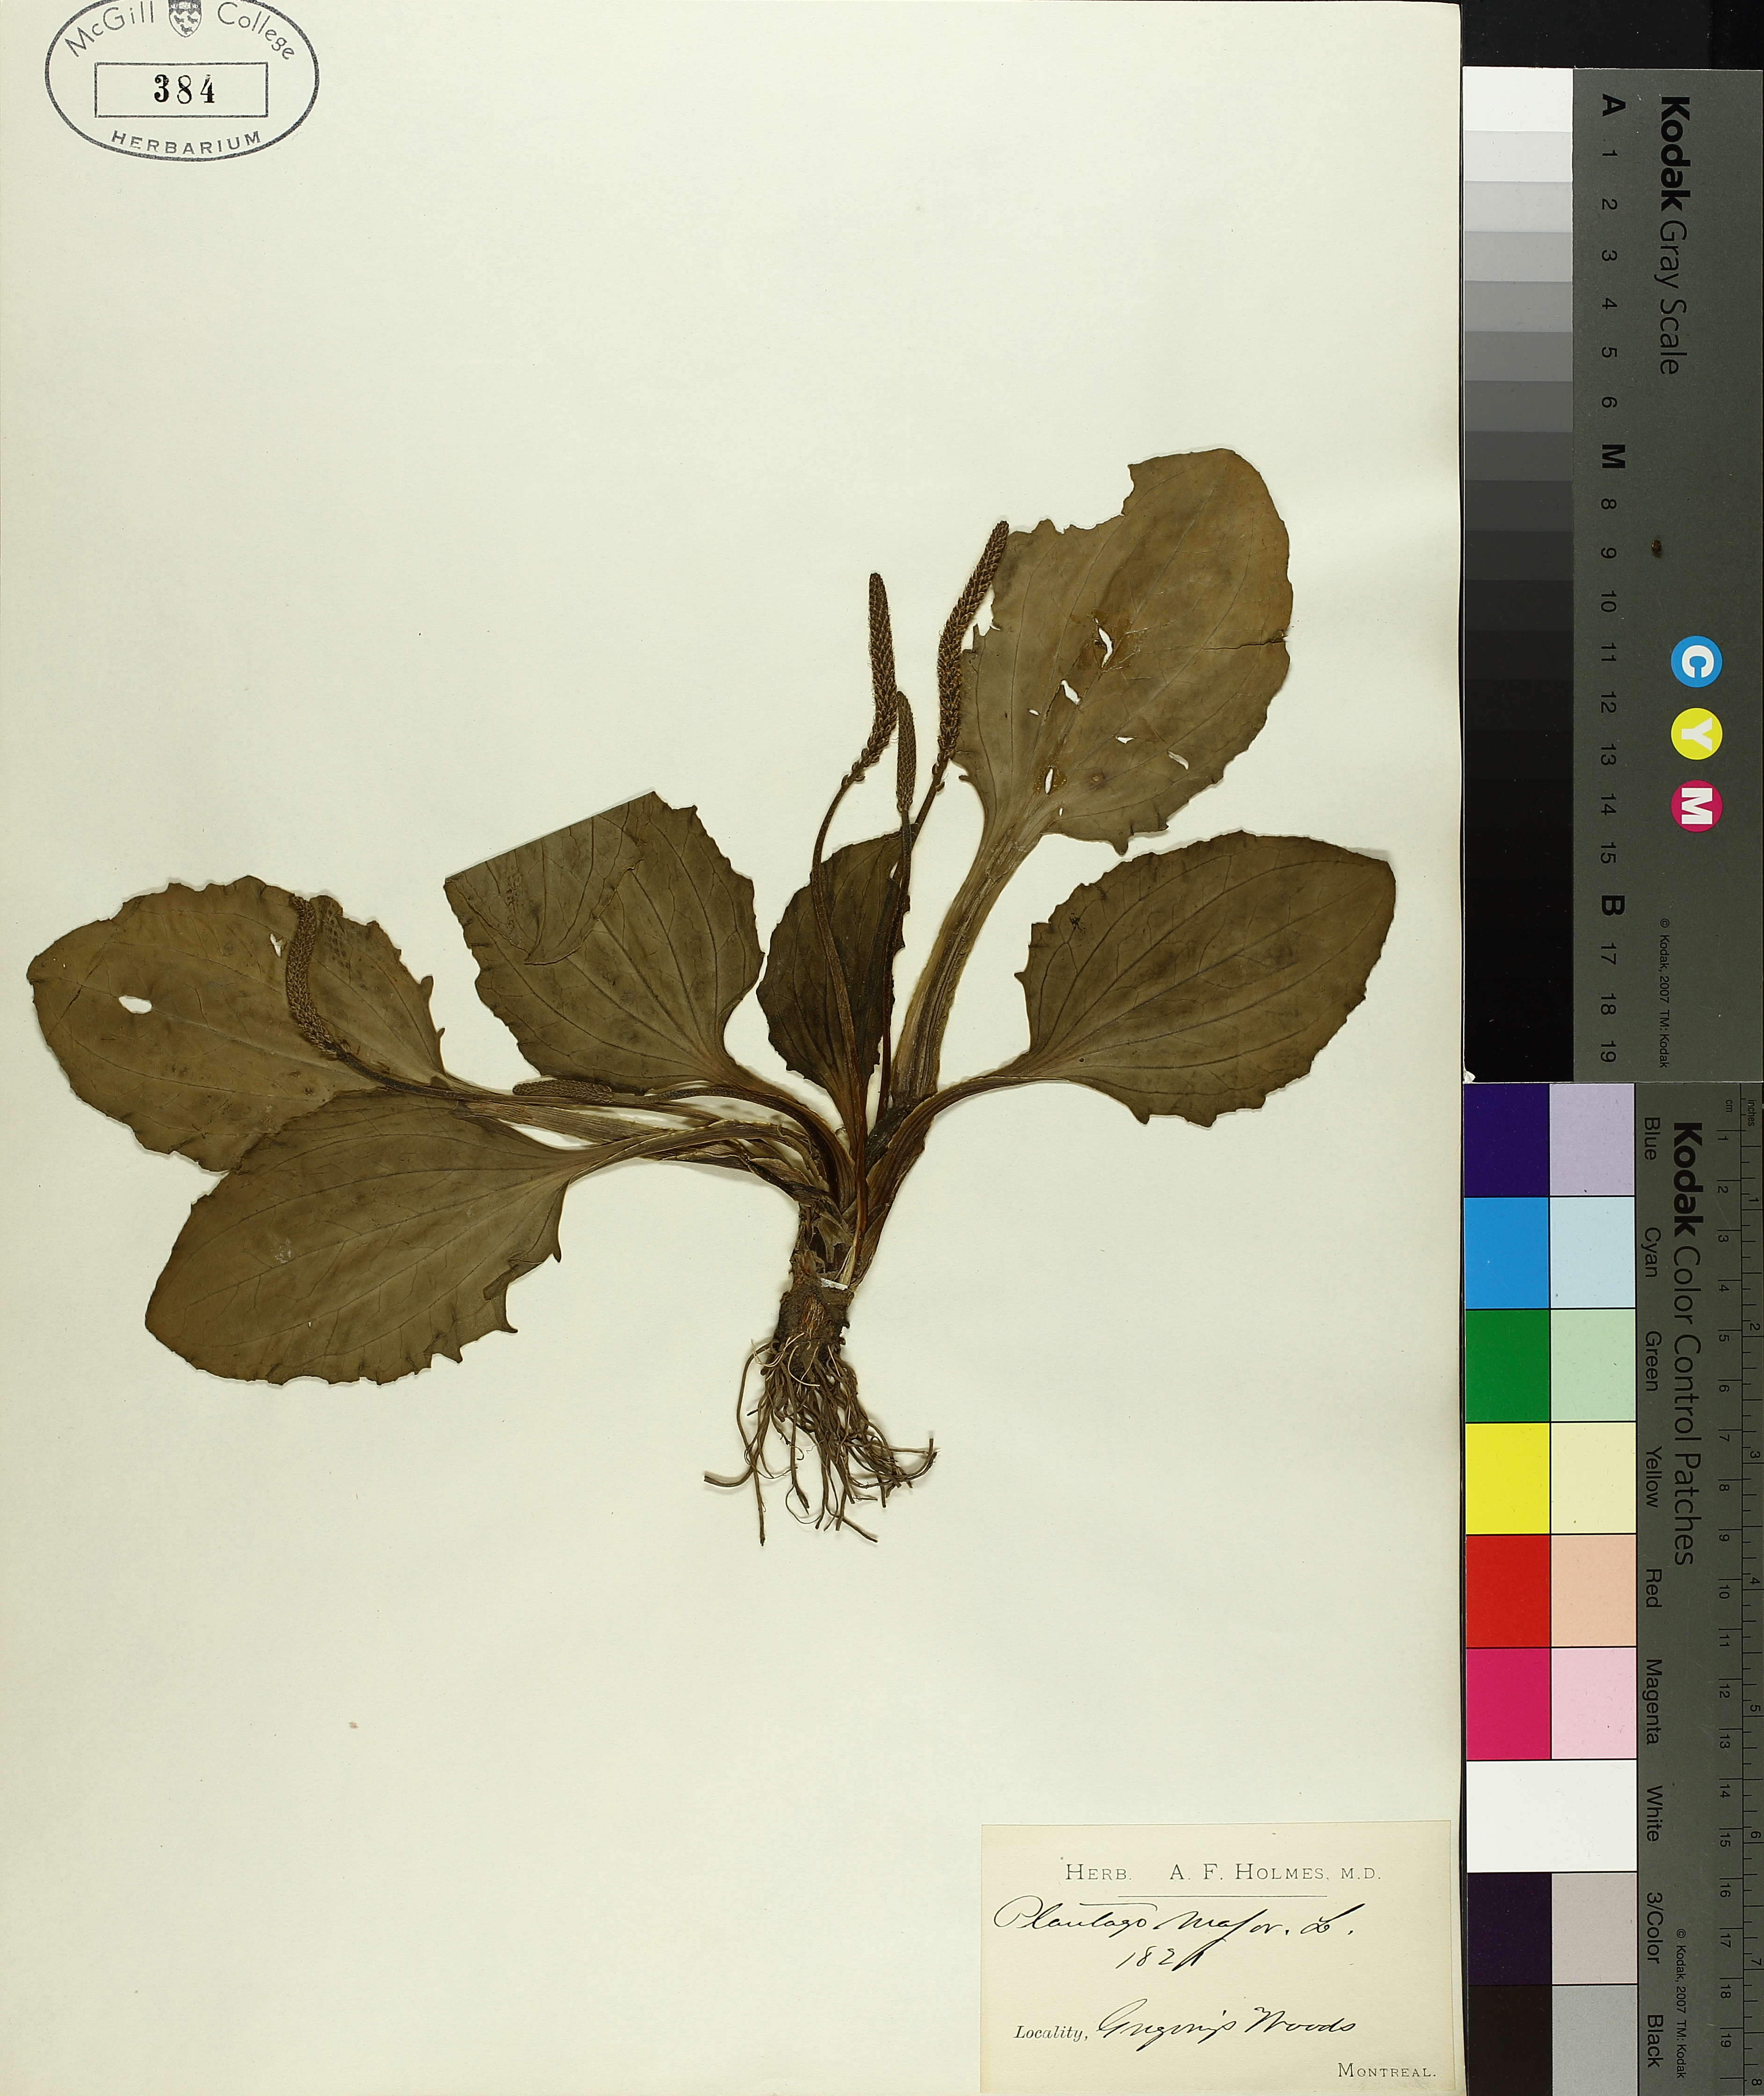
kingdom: Plantae
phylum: Tracheophyta
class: Magnoliopsida
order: Lamiales
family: Plantaginaceae
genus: Plantago
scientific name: Plantago major
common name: Common plantain
